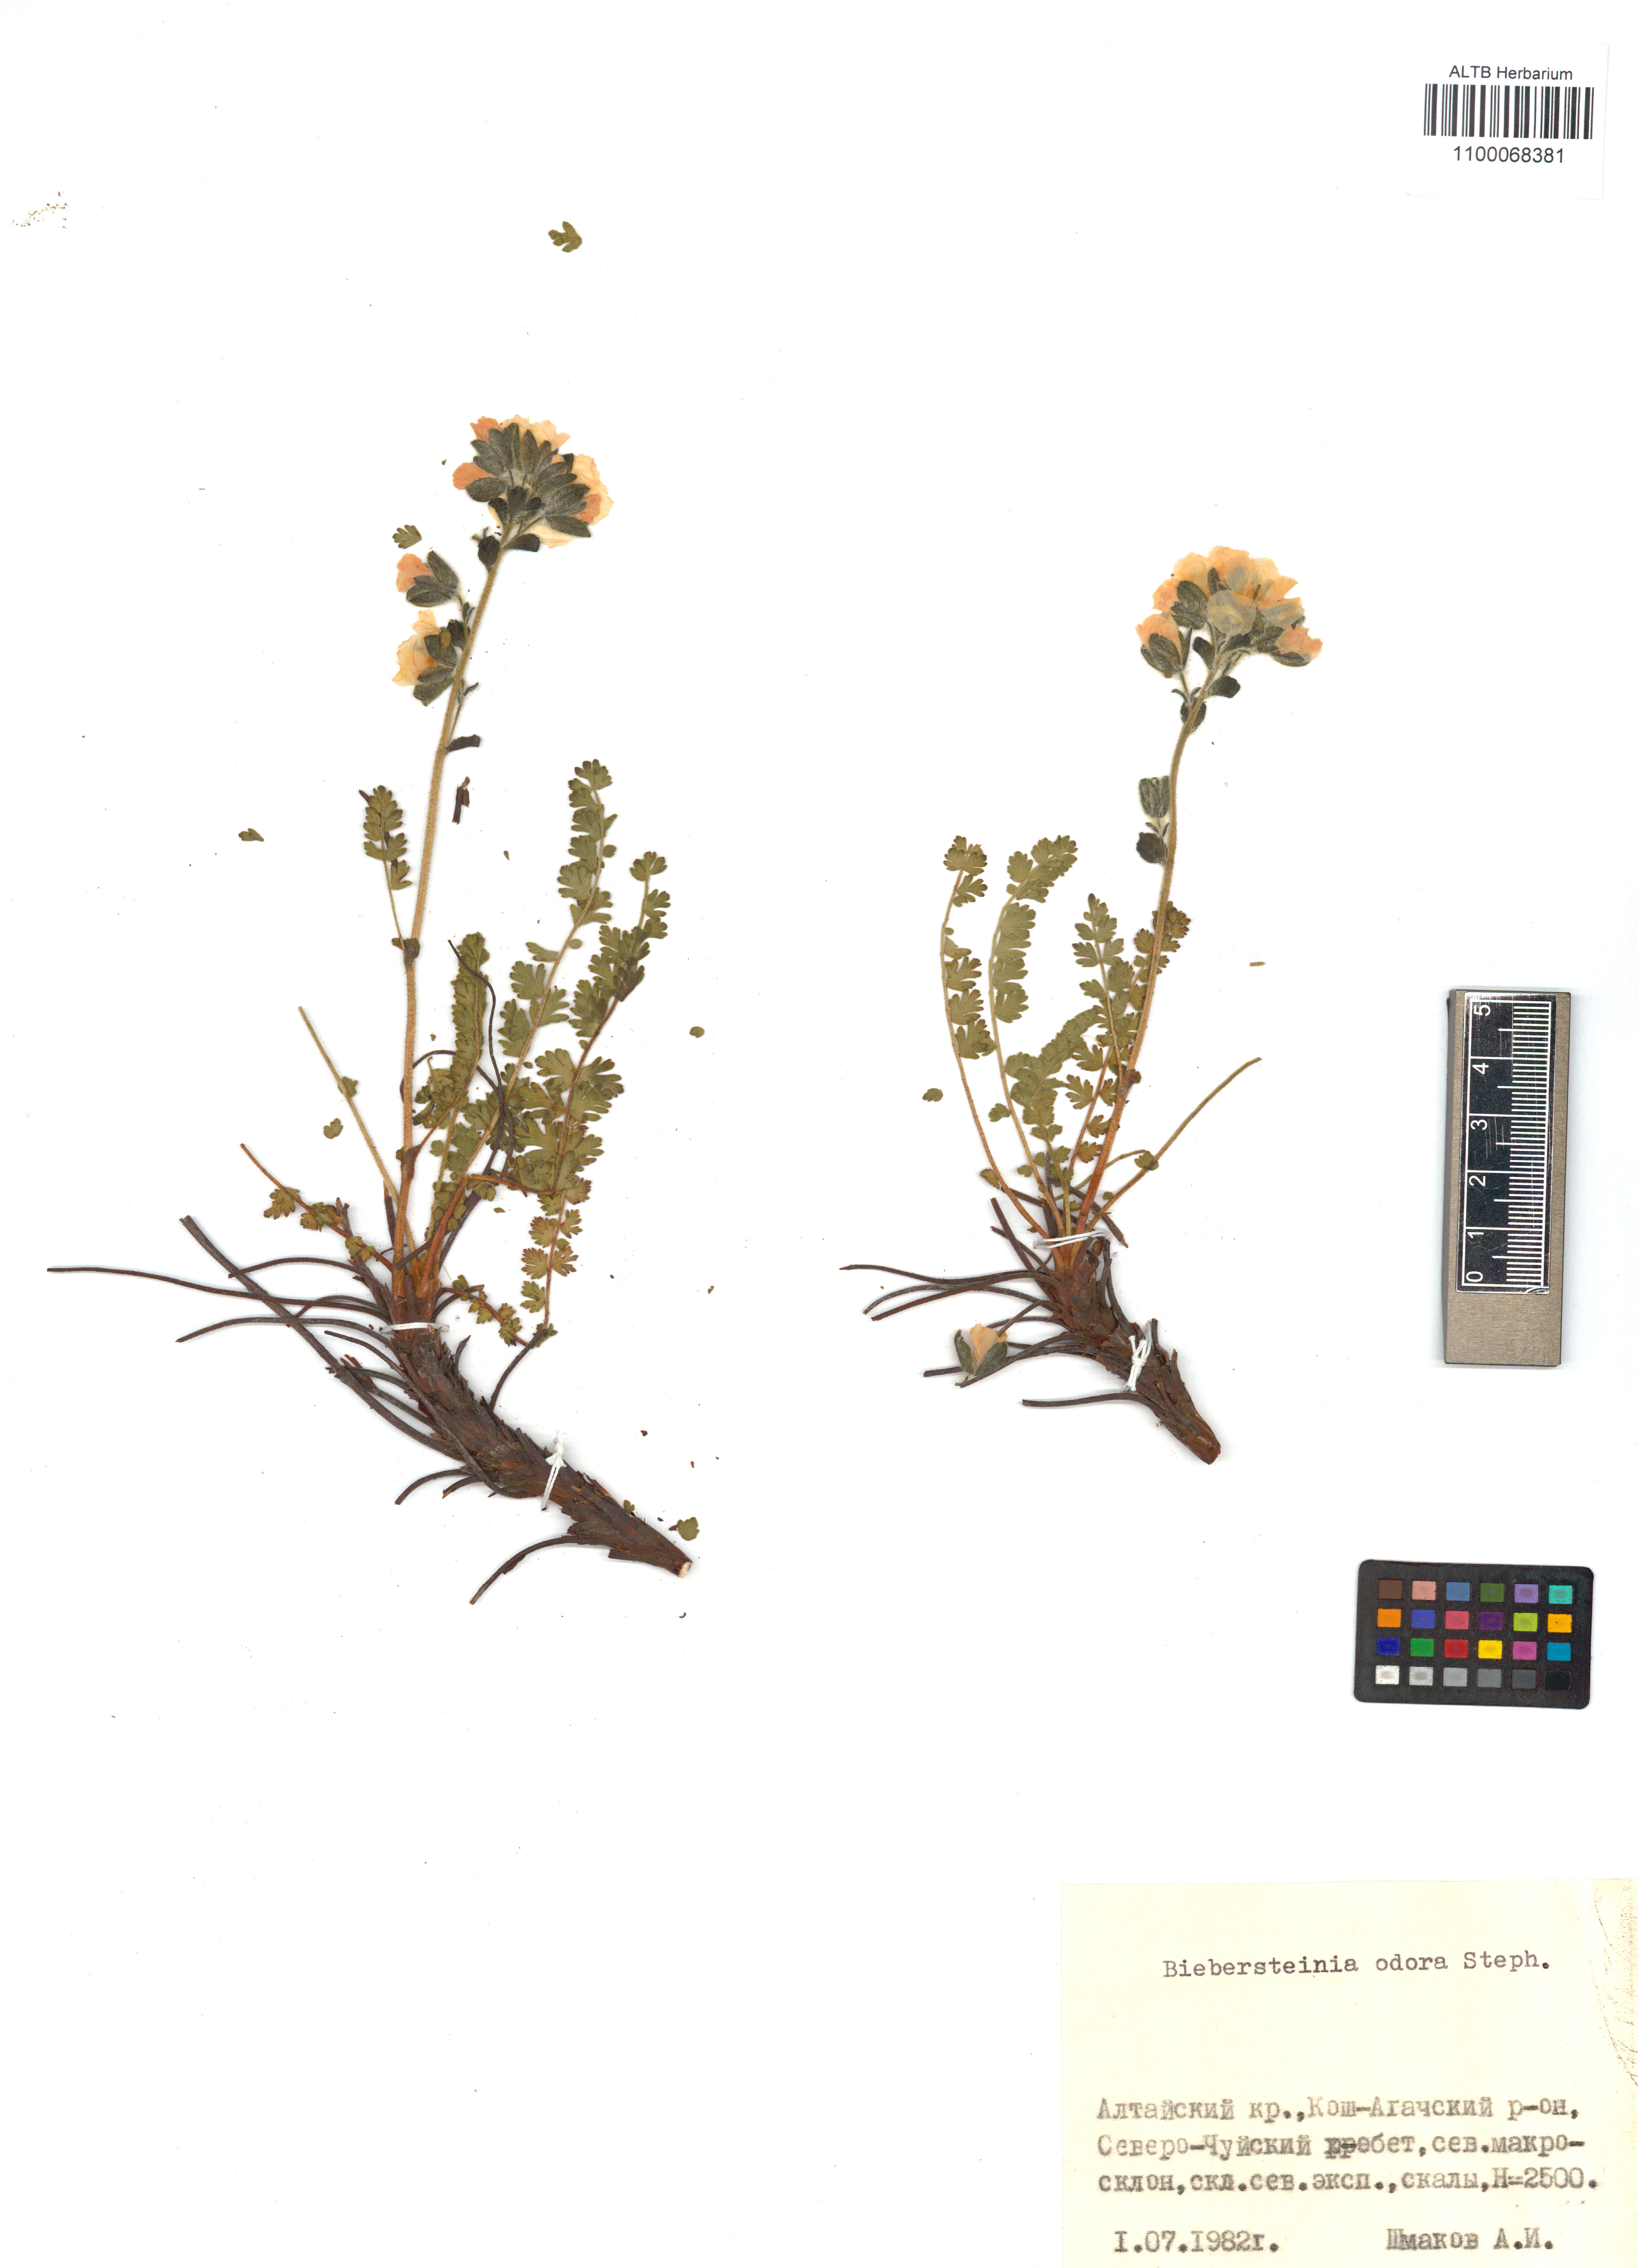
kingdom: Plantae
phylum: Tracheophyta
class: Magnoliopsida
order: Sapindales
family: Biebersteiniaceae
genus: Biebersteinia
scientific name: Biebersteinia odora
